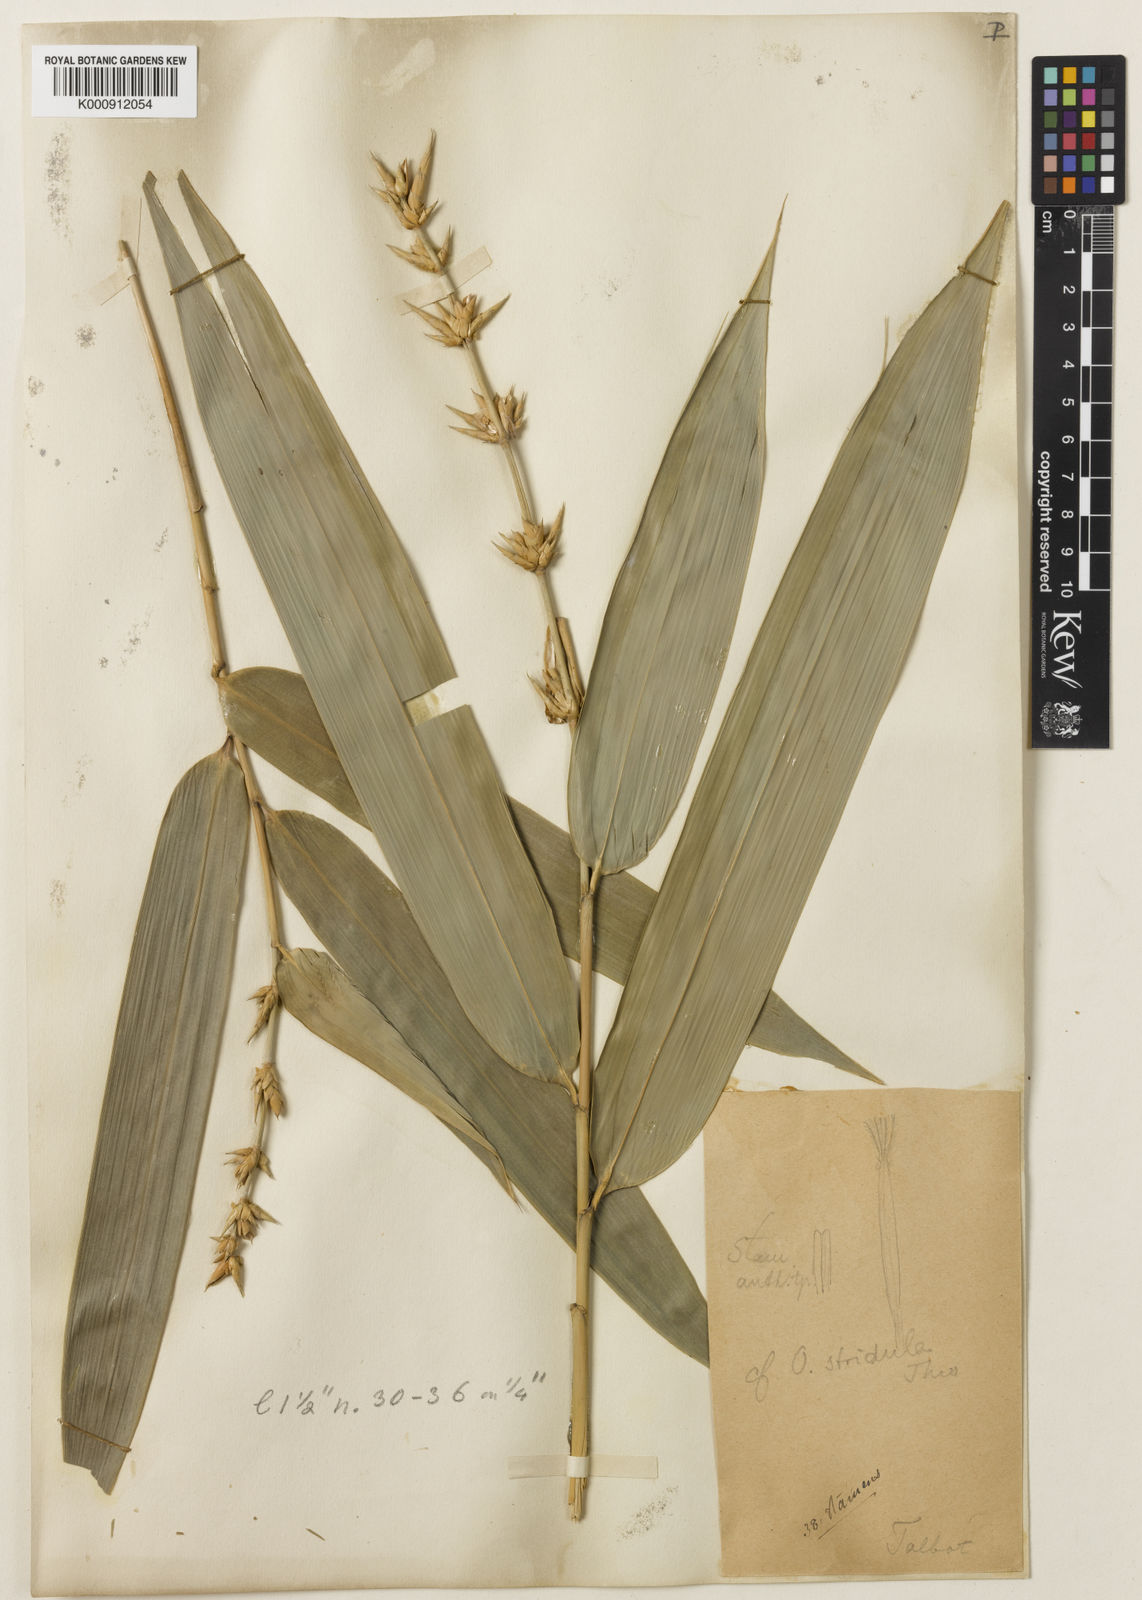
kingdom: Plantae
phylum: Tracheophyta
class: Liliopsida
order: Poales
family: Poaceae
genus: Ochlandra
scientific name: Ochlandra talbotii
